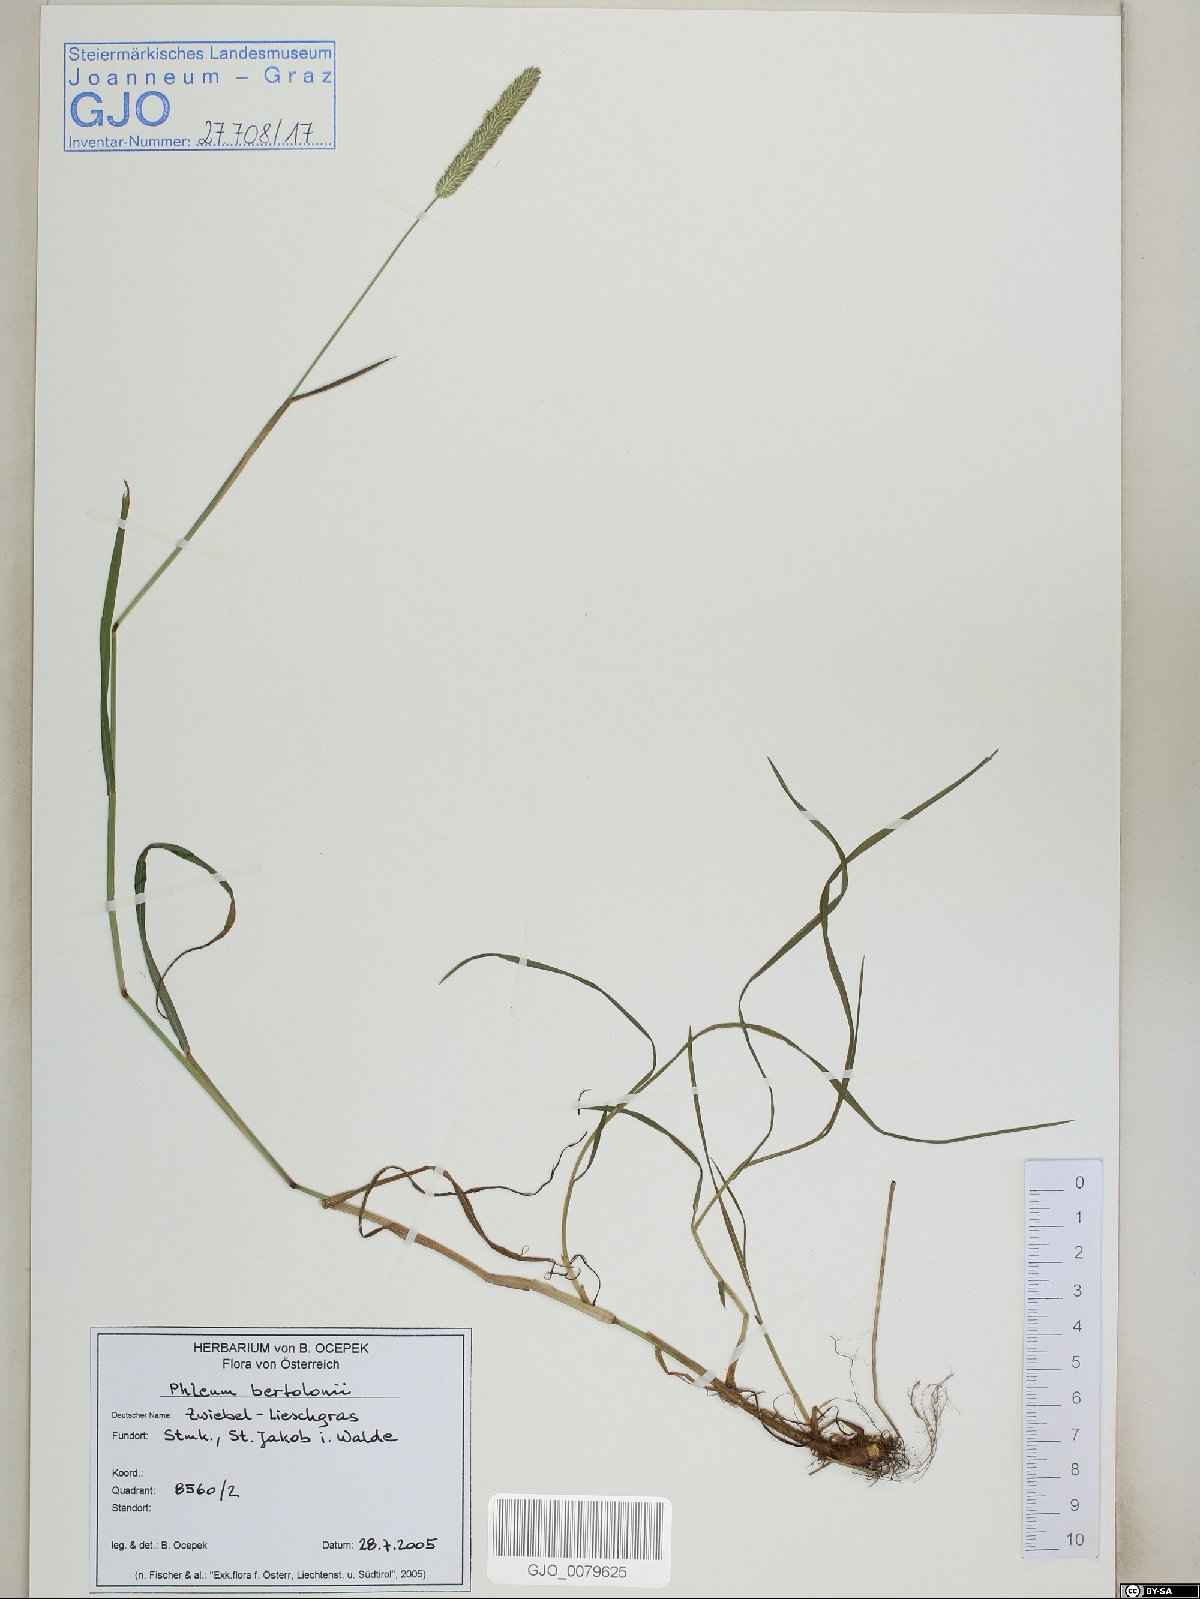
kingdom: Plantae
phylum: Tracheophyta
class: Liliopsida
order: Poales
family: Poaceae
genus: Phleum
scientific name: Phleum bertolonii
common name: Smaller cat's-tail
